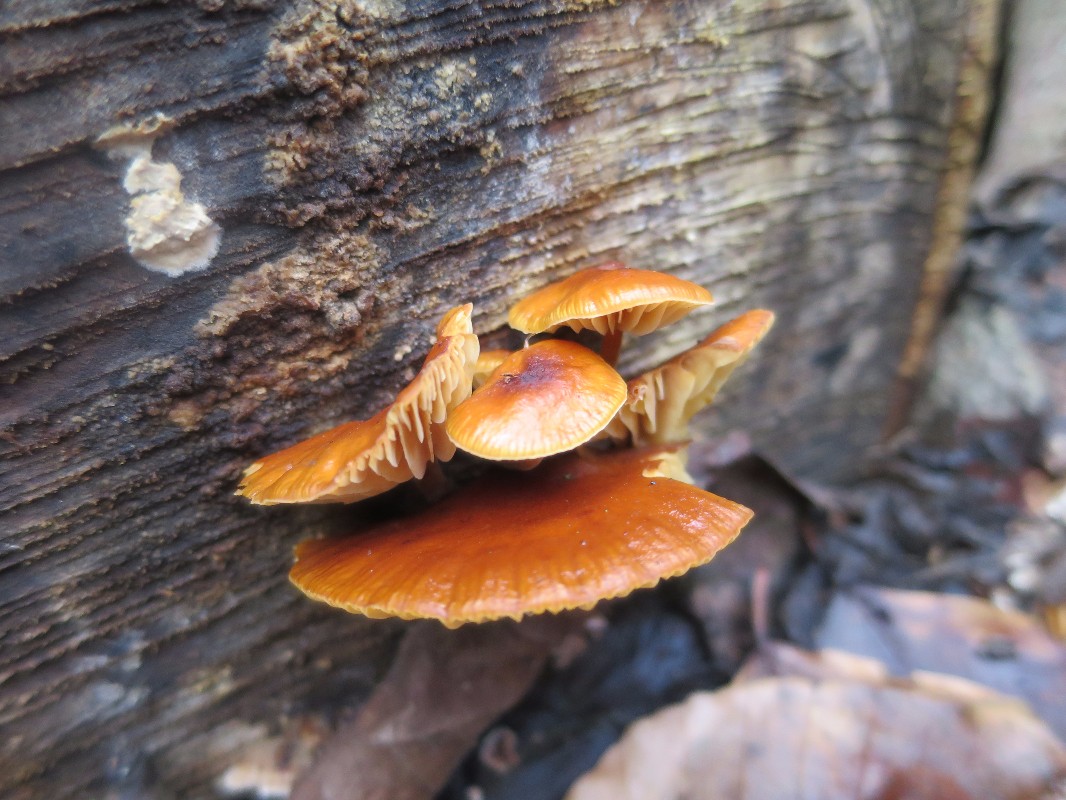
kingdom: Fungi
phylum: Basidiomycota
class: Agaricomycetes
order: Agaricales
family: Physalacriaceae
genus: Flammulina
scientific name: Flammulina velutipes
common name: gul fløjlsfod
